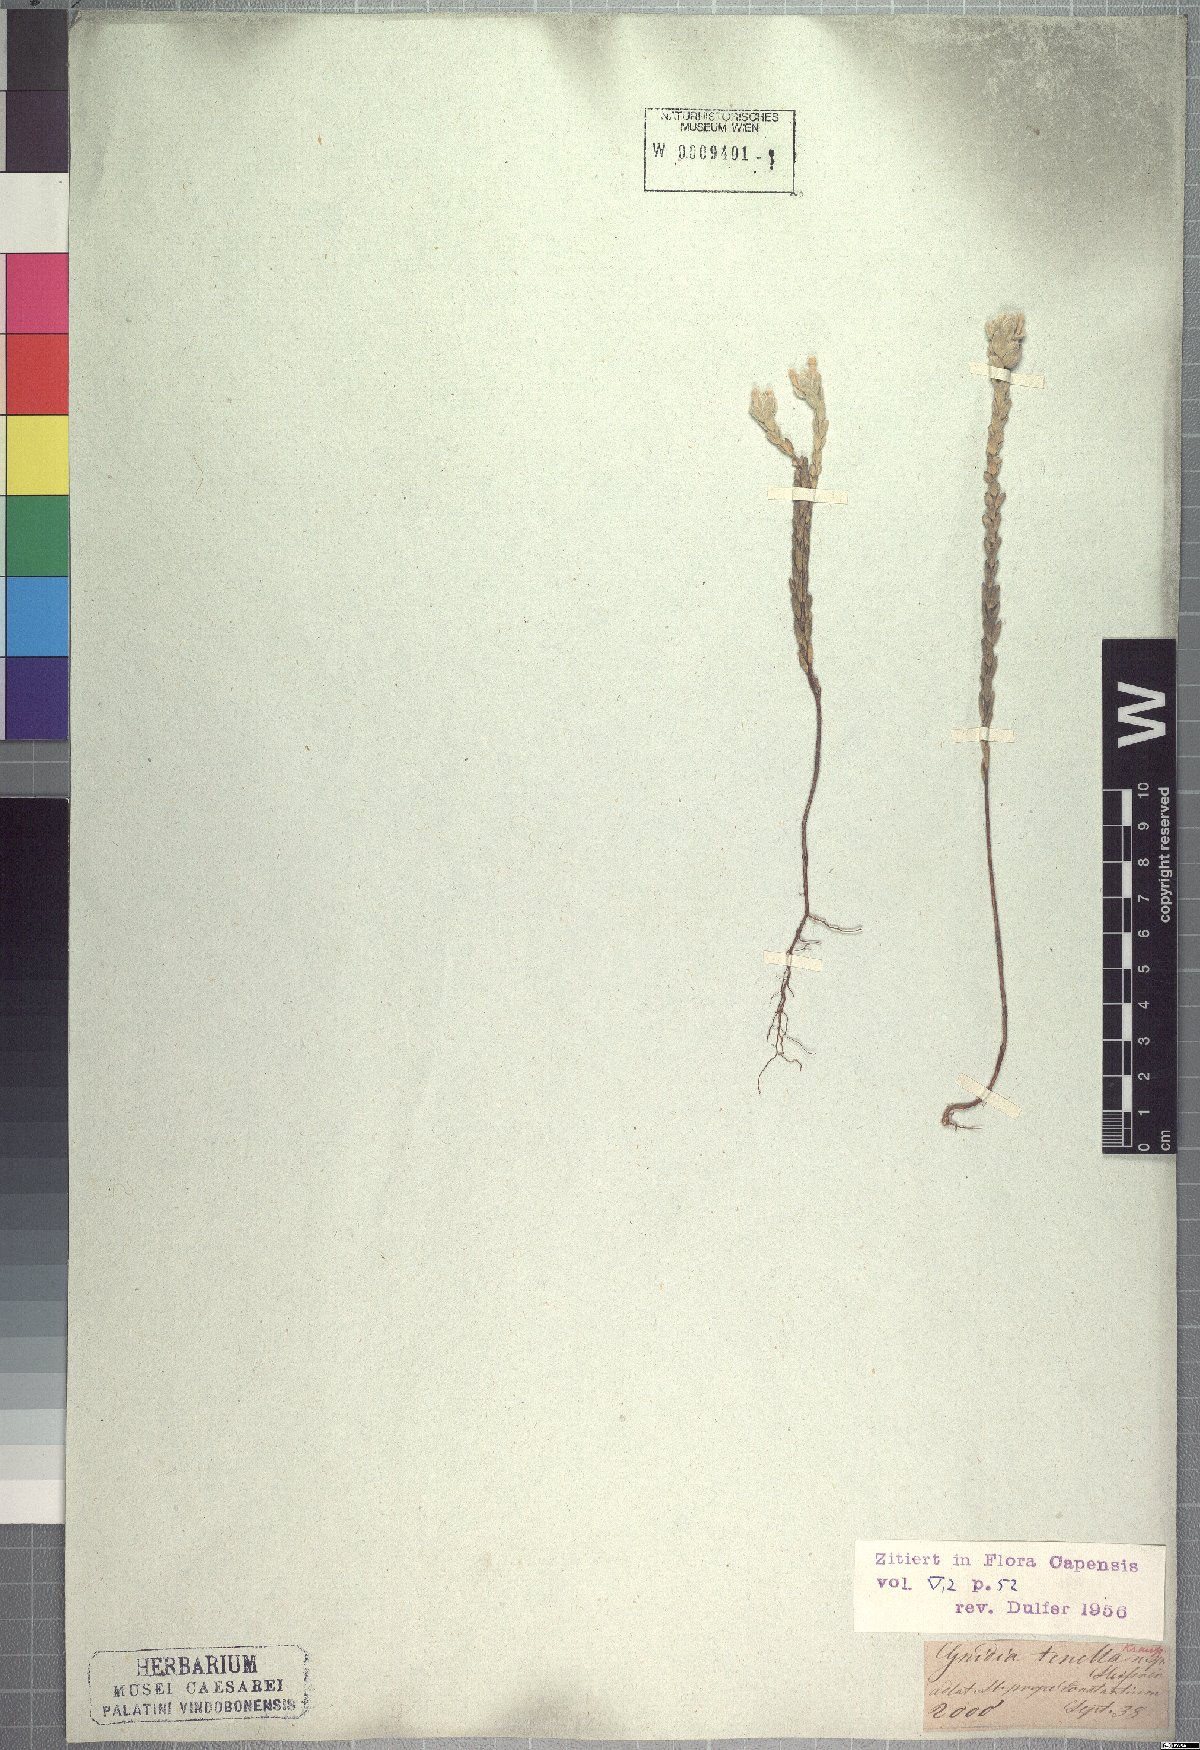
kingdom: Plantae
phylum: Tracheophyta
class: Magnoliopsida
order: Malvales
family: Thymelaeaceae
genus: Gnidia
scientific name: Gnidia tenella
